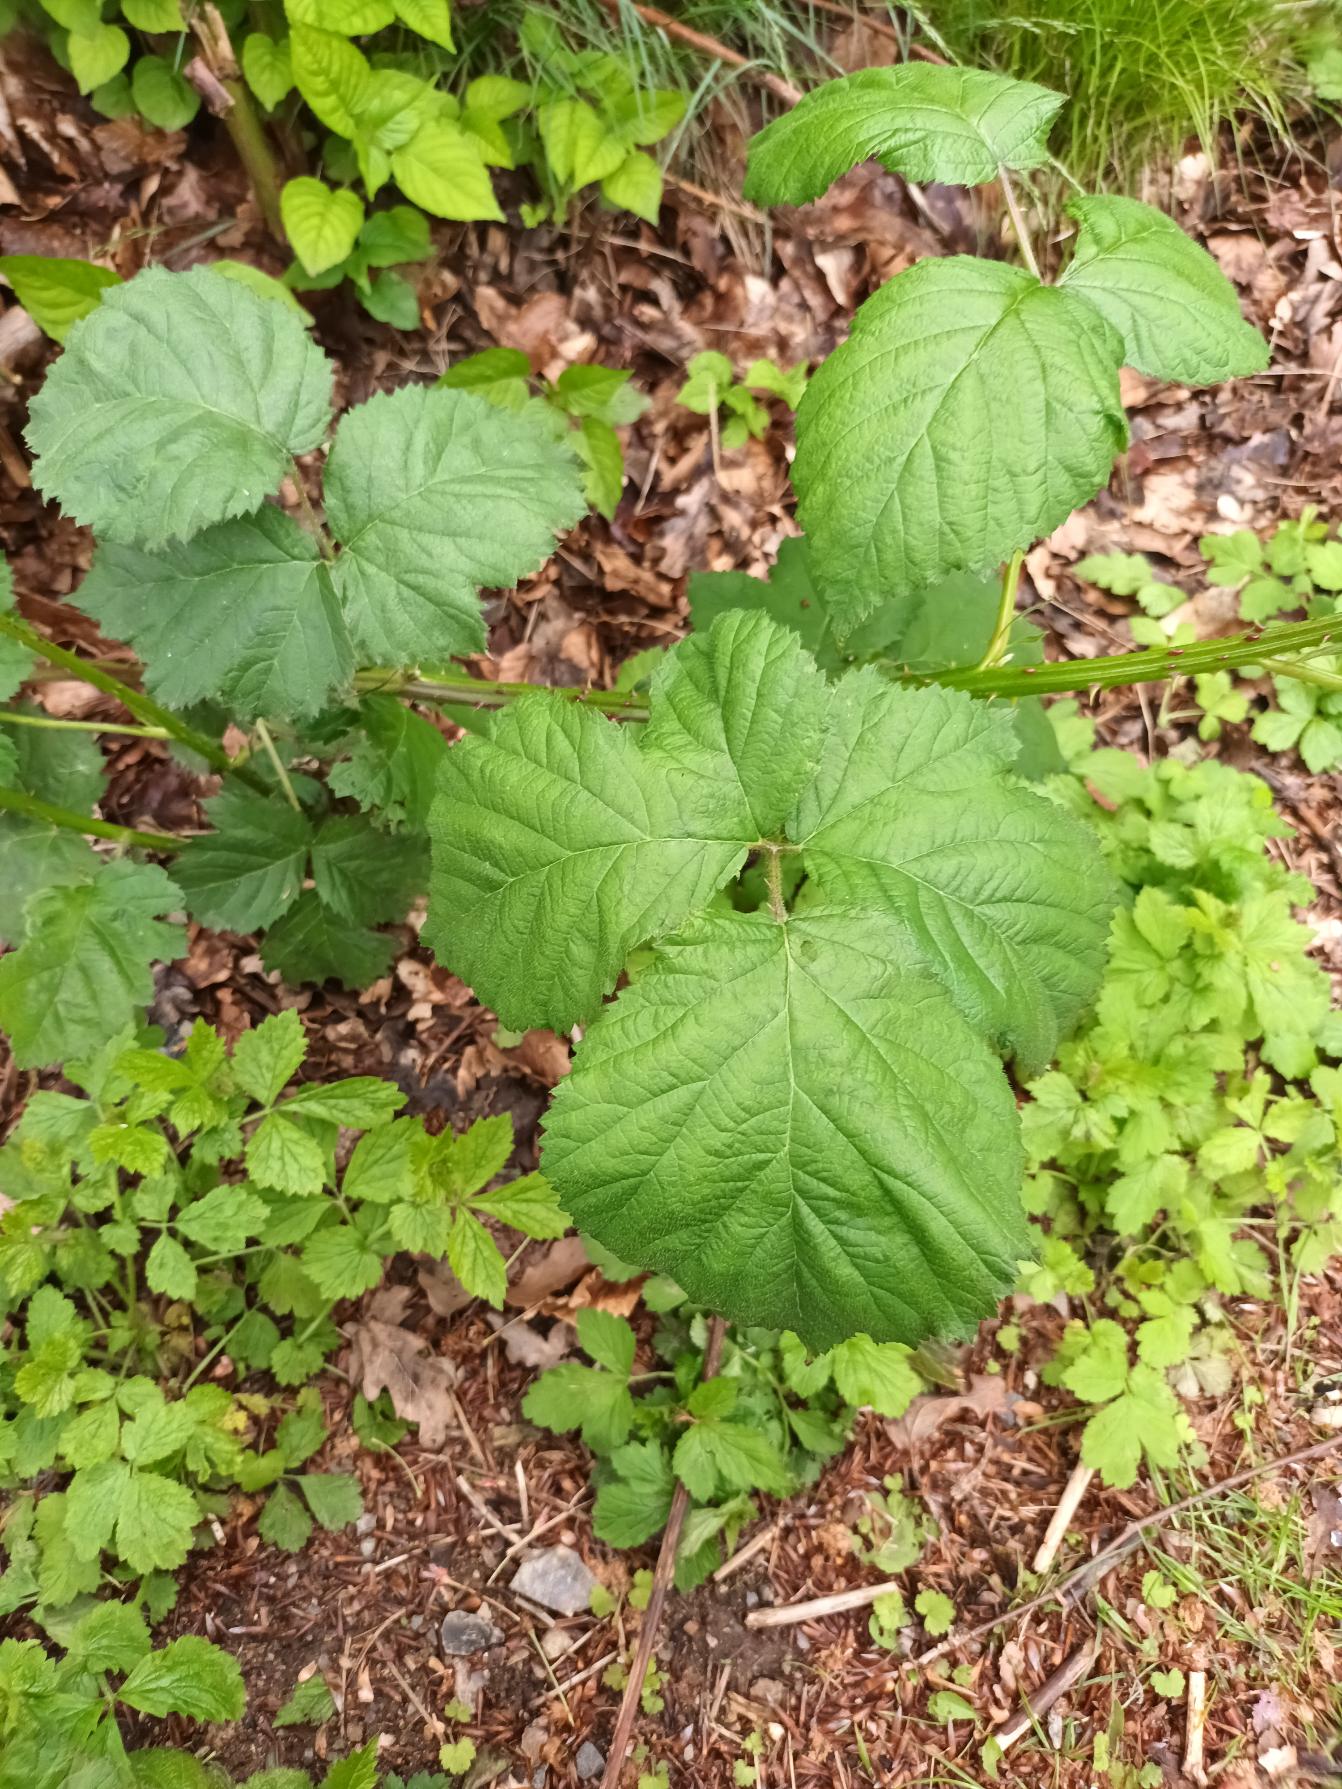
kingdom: Plantae
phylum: Tracheophyta
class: Magnoliopsida
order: Rosales
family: Rosaceae
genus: Rubus
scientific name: Rubus armeniacus
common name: Armensk brombær
